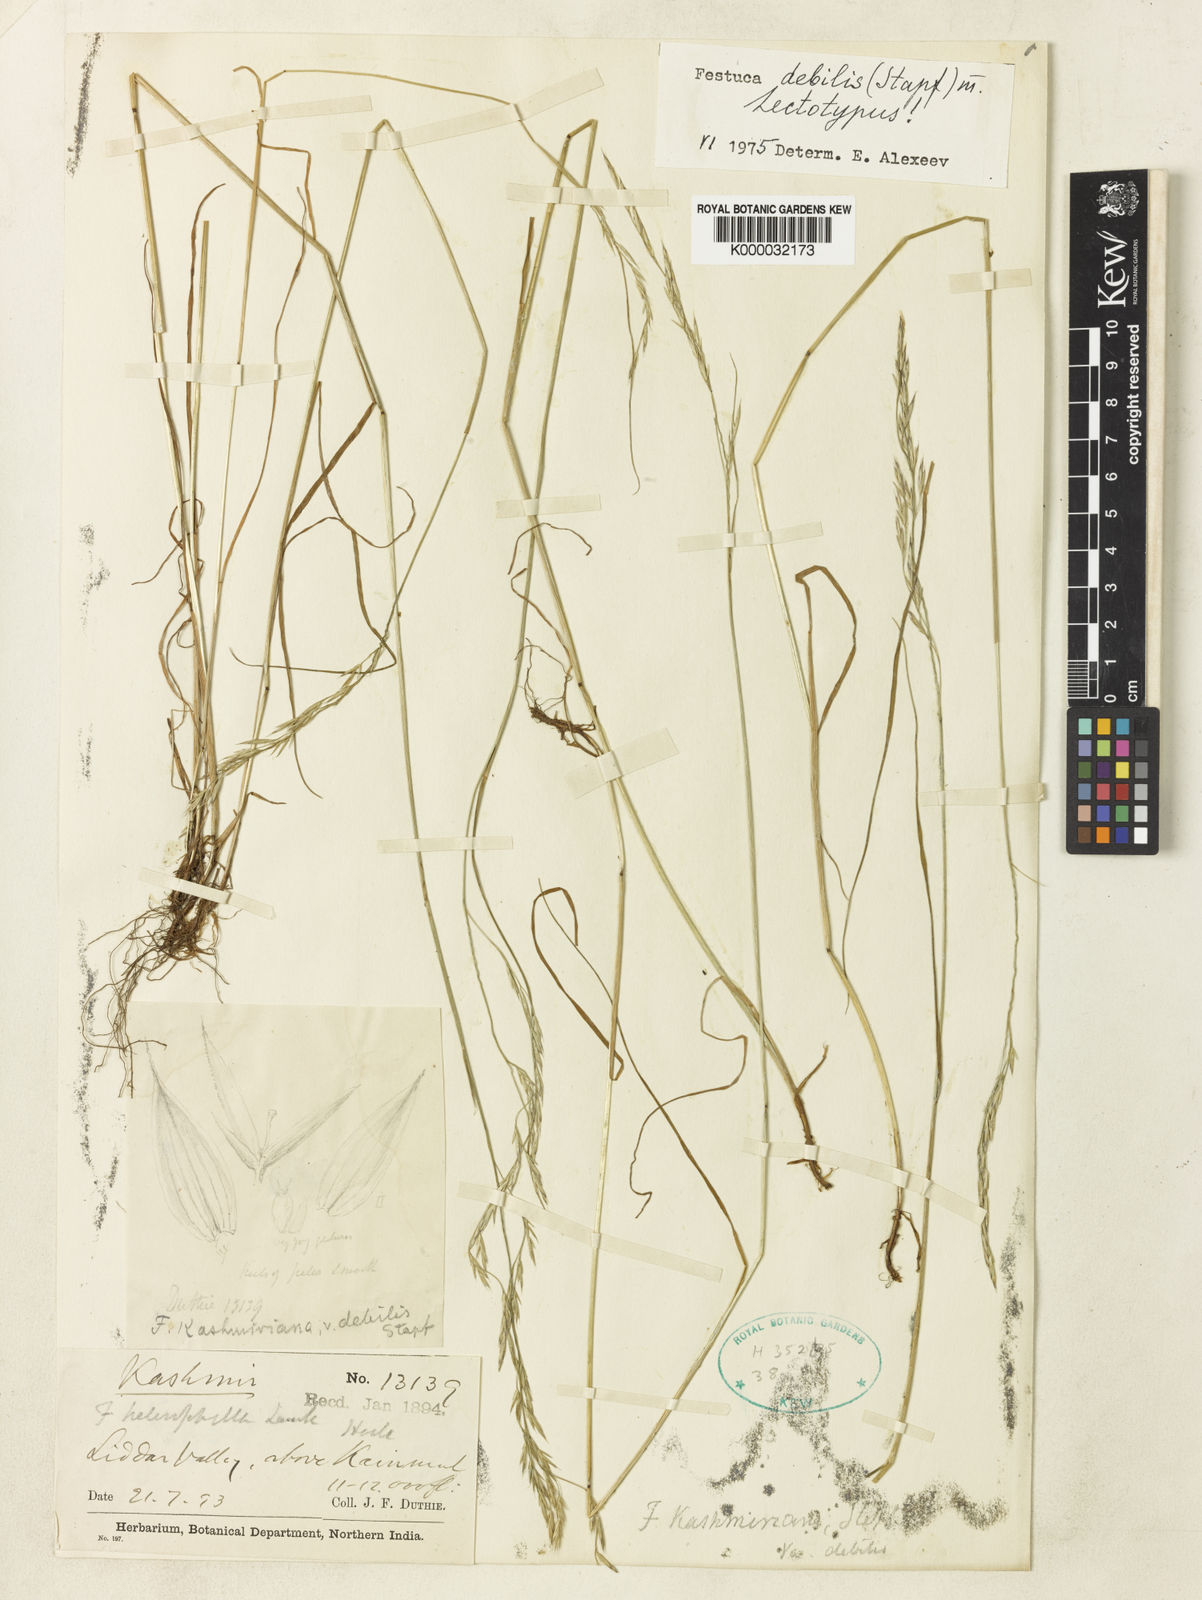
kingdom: Plantae
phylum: Tracheophyta
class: Liliopsida
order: Poales
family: Poaceae
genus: Festuca
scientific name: Festuca debilis
